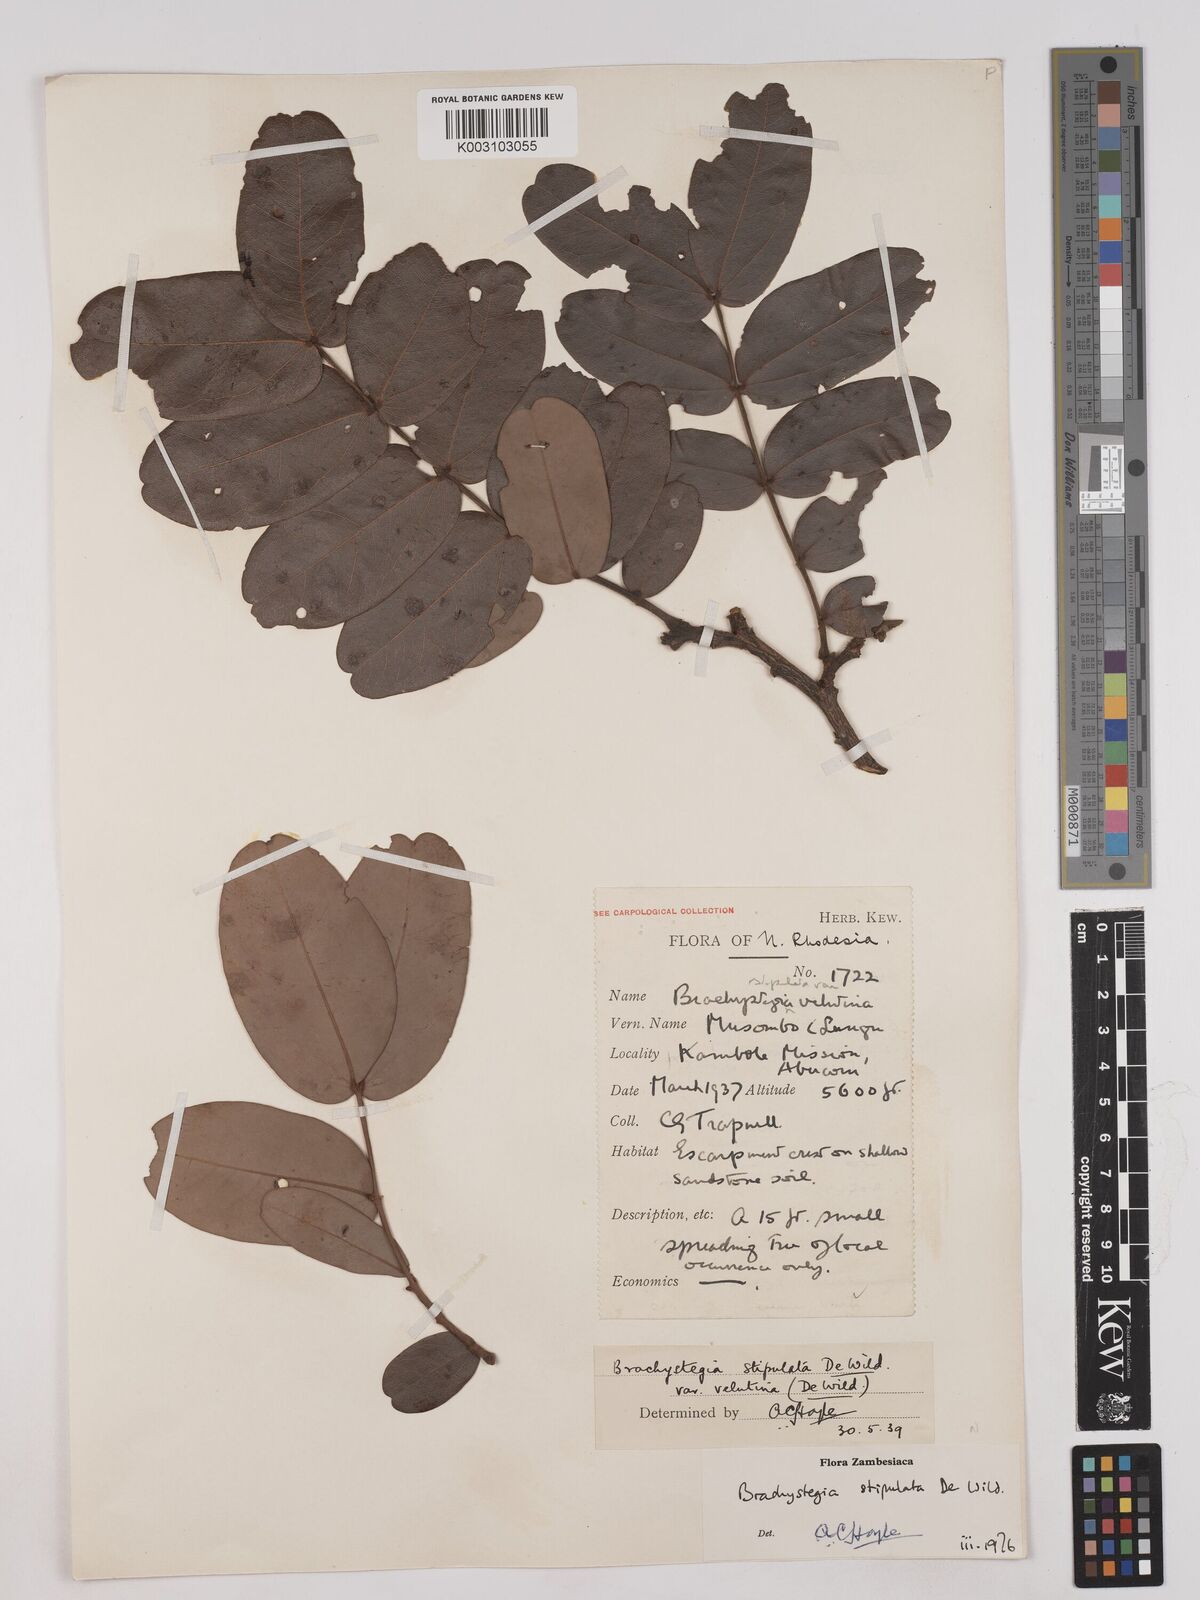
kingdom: Plantae
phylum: Tracheophyta
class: Magnoliopsida
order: Fabales
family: Fabaceae
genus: Brachystegia
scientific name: Brachystegia stipulata
